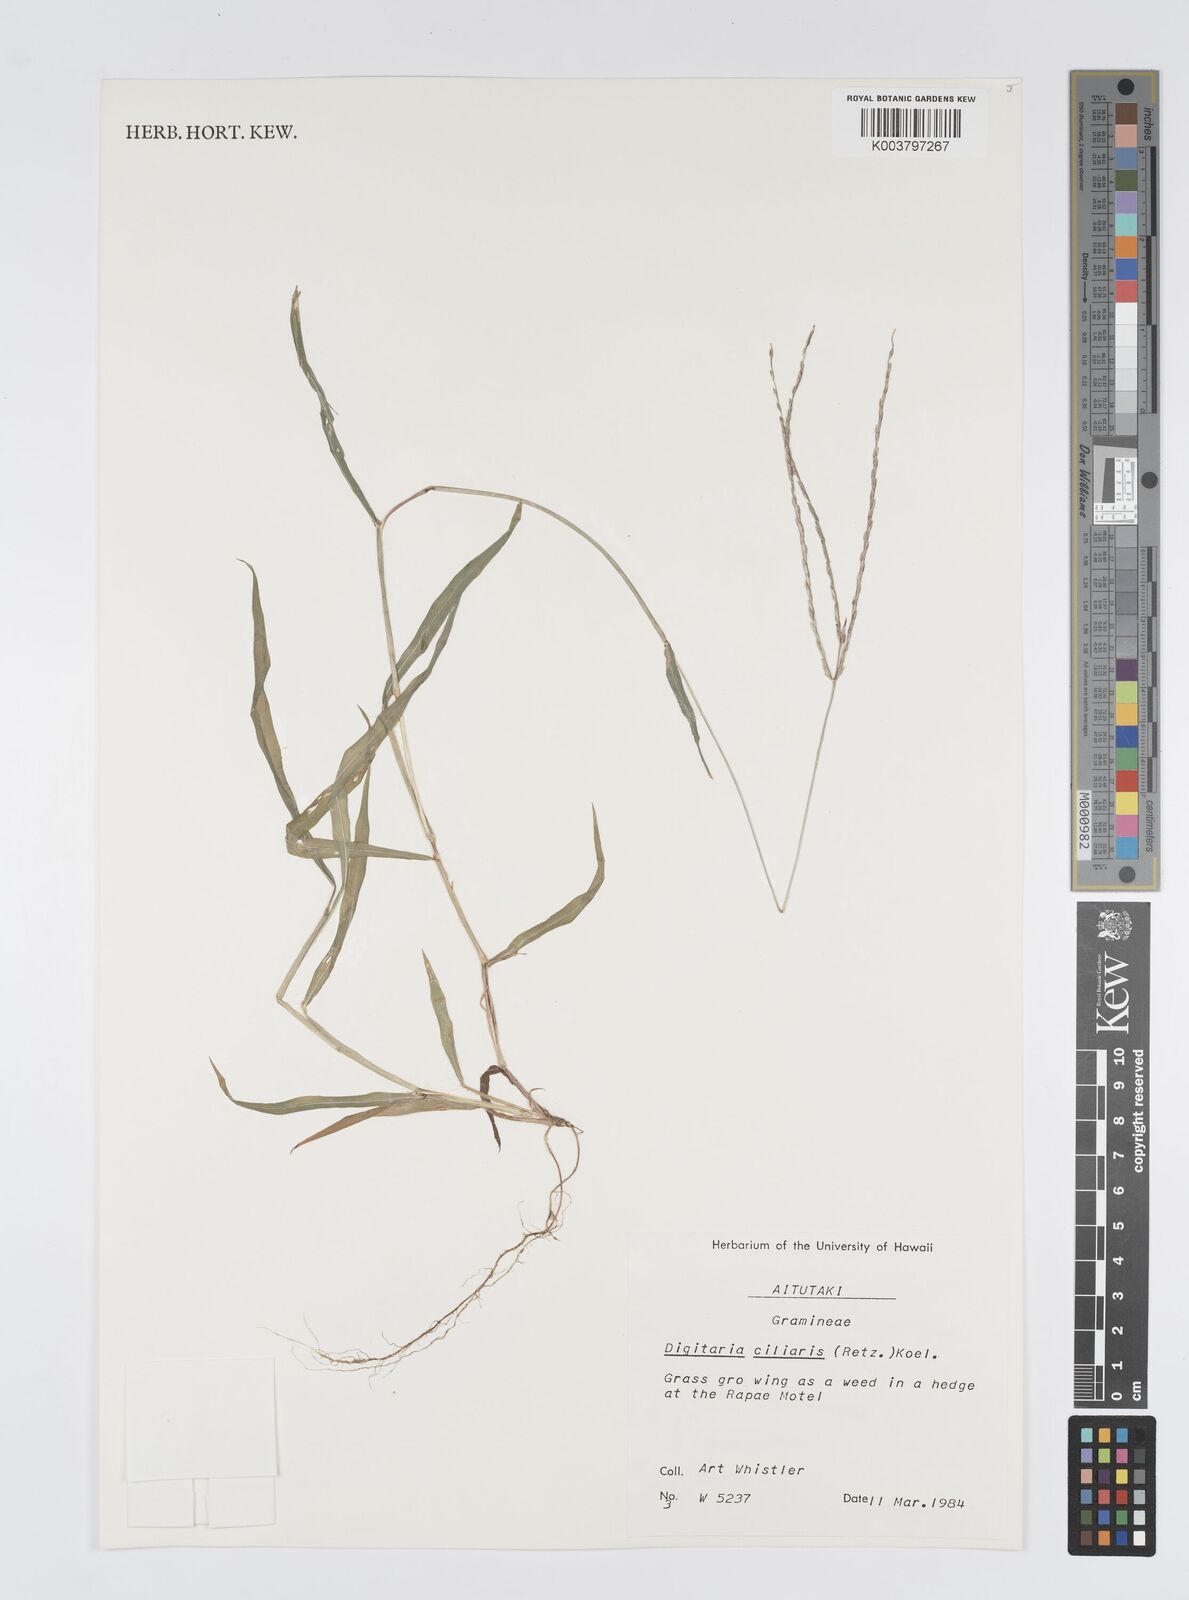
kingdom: Plantae
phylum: Tracheophyta
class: Liliopsida
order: Poales
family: Poaceae
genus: Digitaria
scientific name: Digitaria ciliaris
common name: Tropical finger-grass
